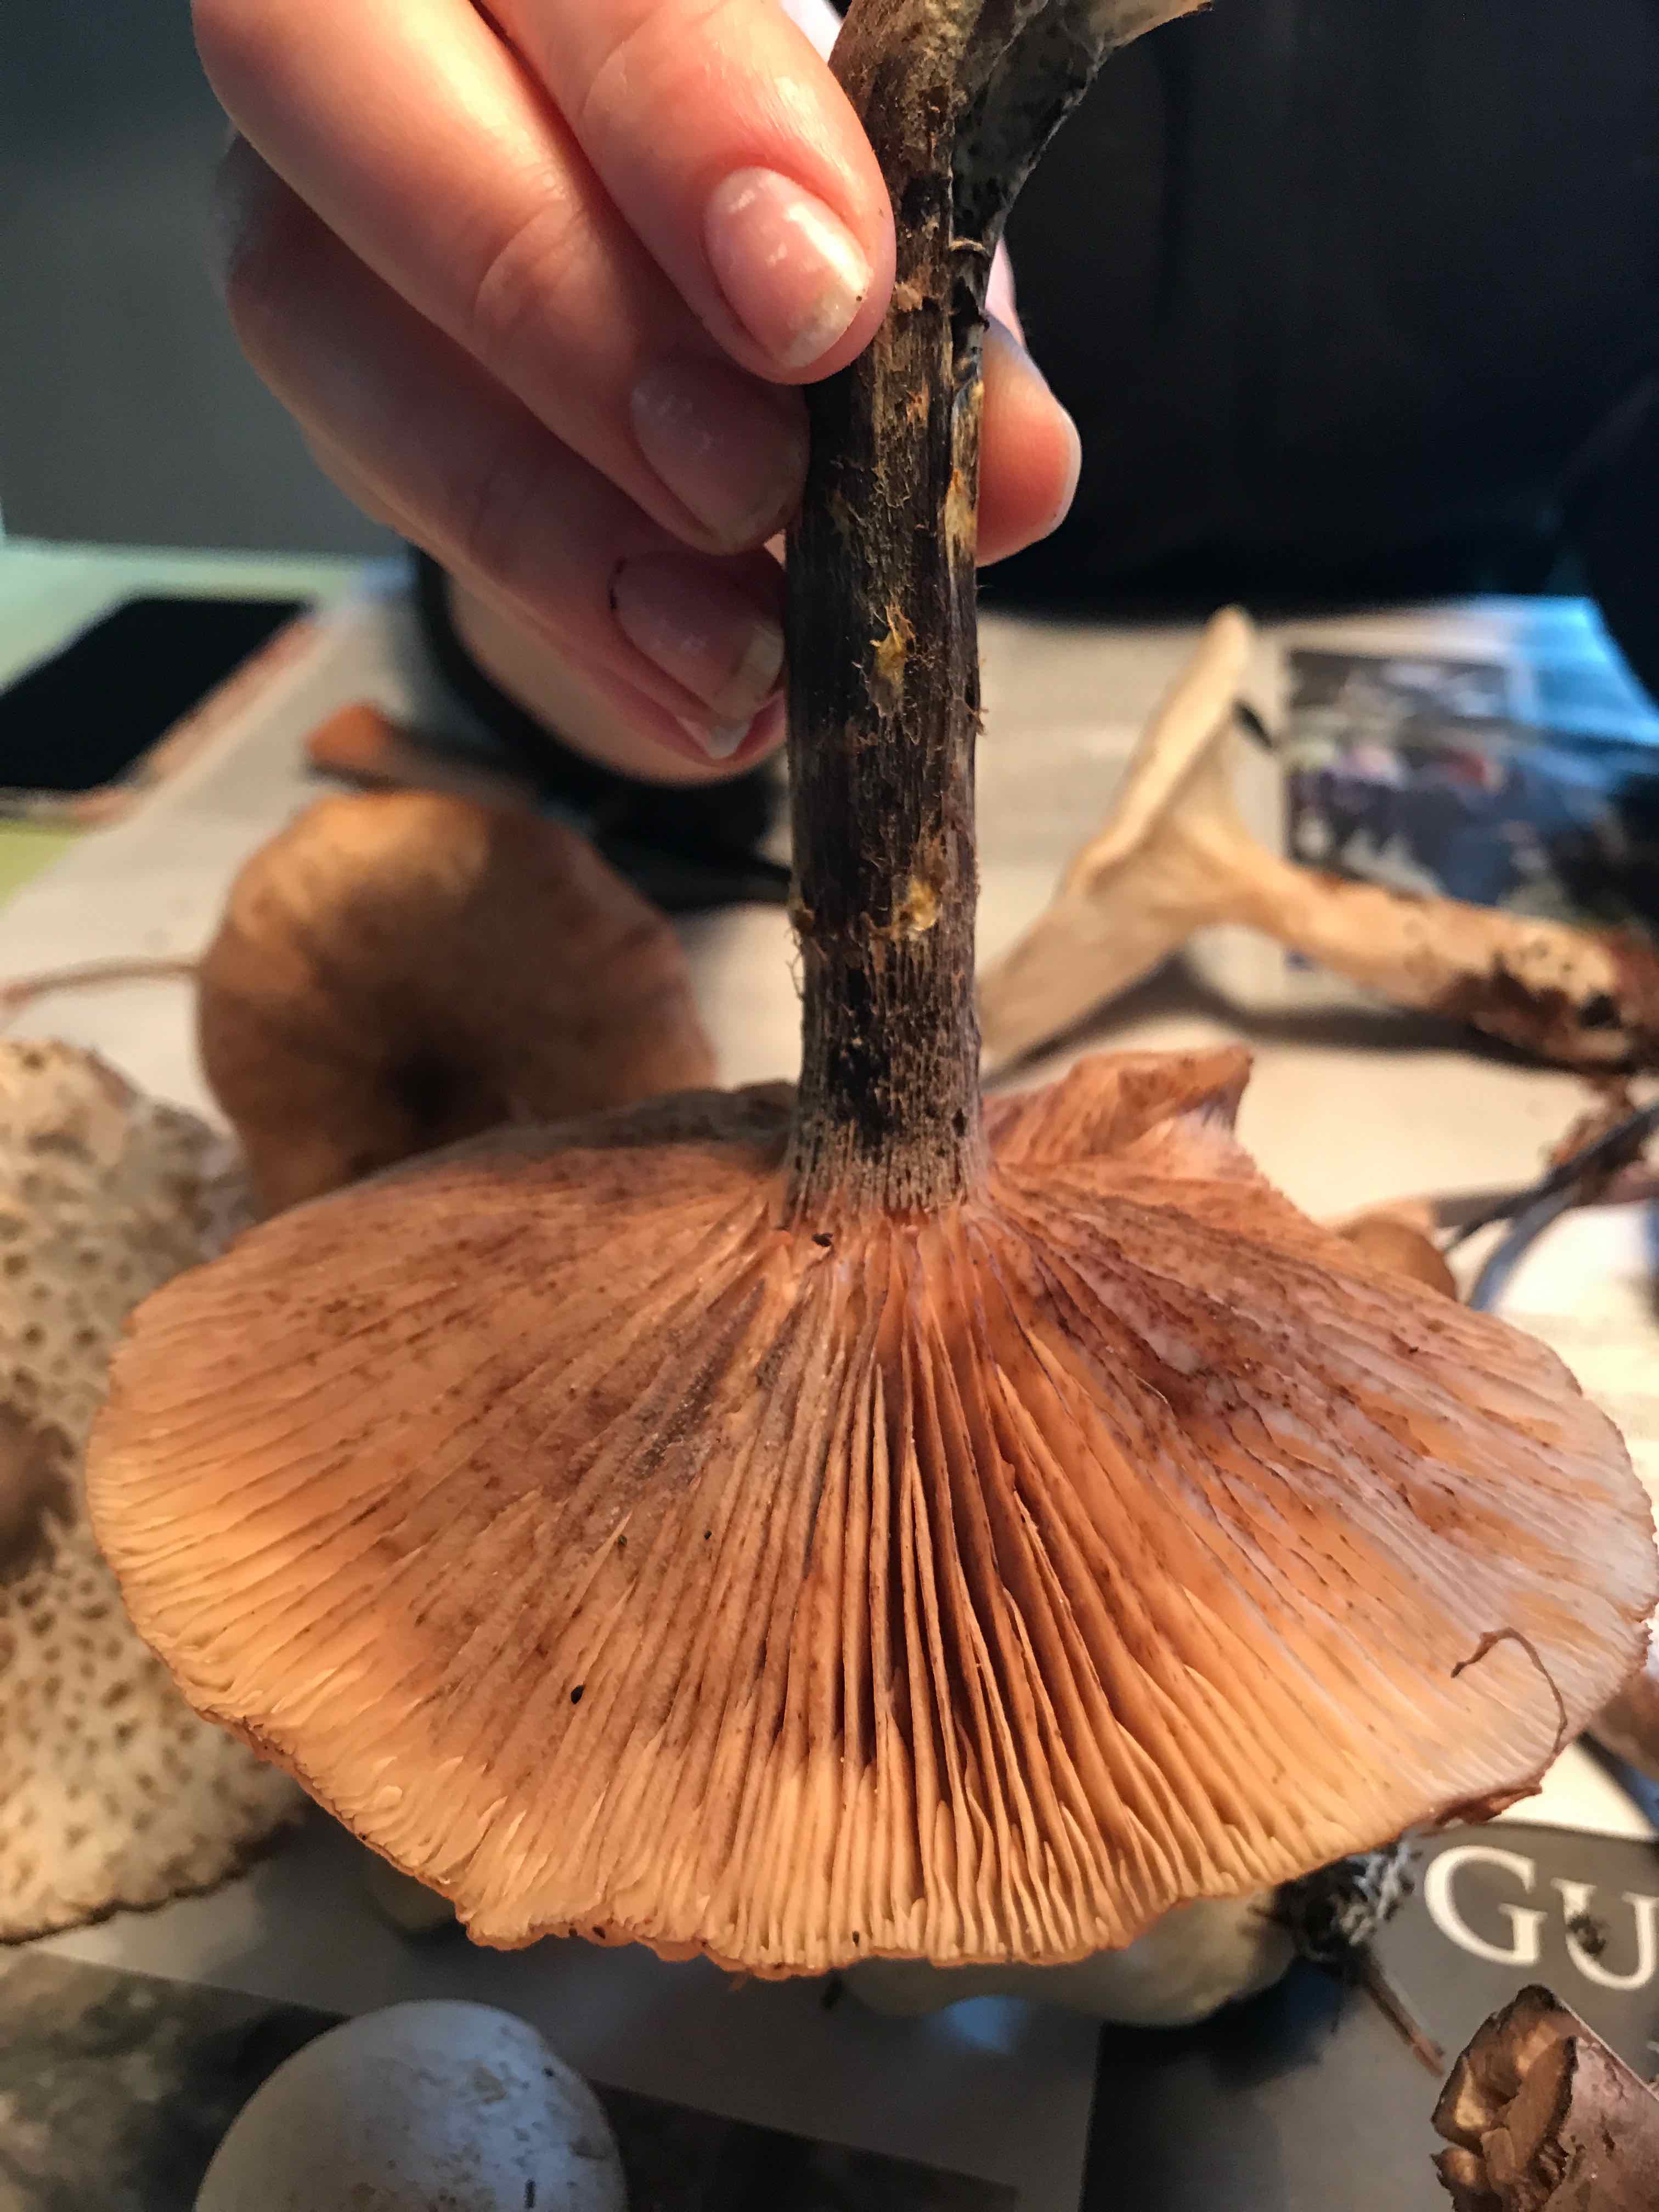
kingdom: Fungi
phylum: Basidiomycota
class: Agaricomycetes
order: Agaricales
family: Physalacriaceae
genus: Armillaria
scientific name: Armillaria
